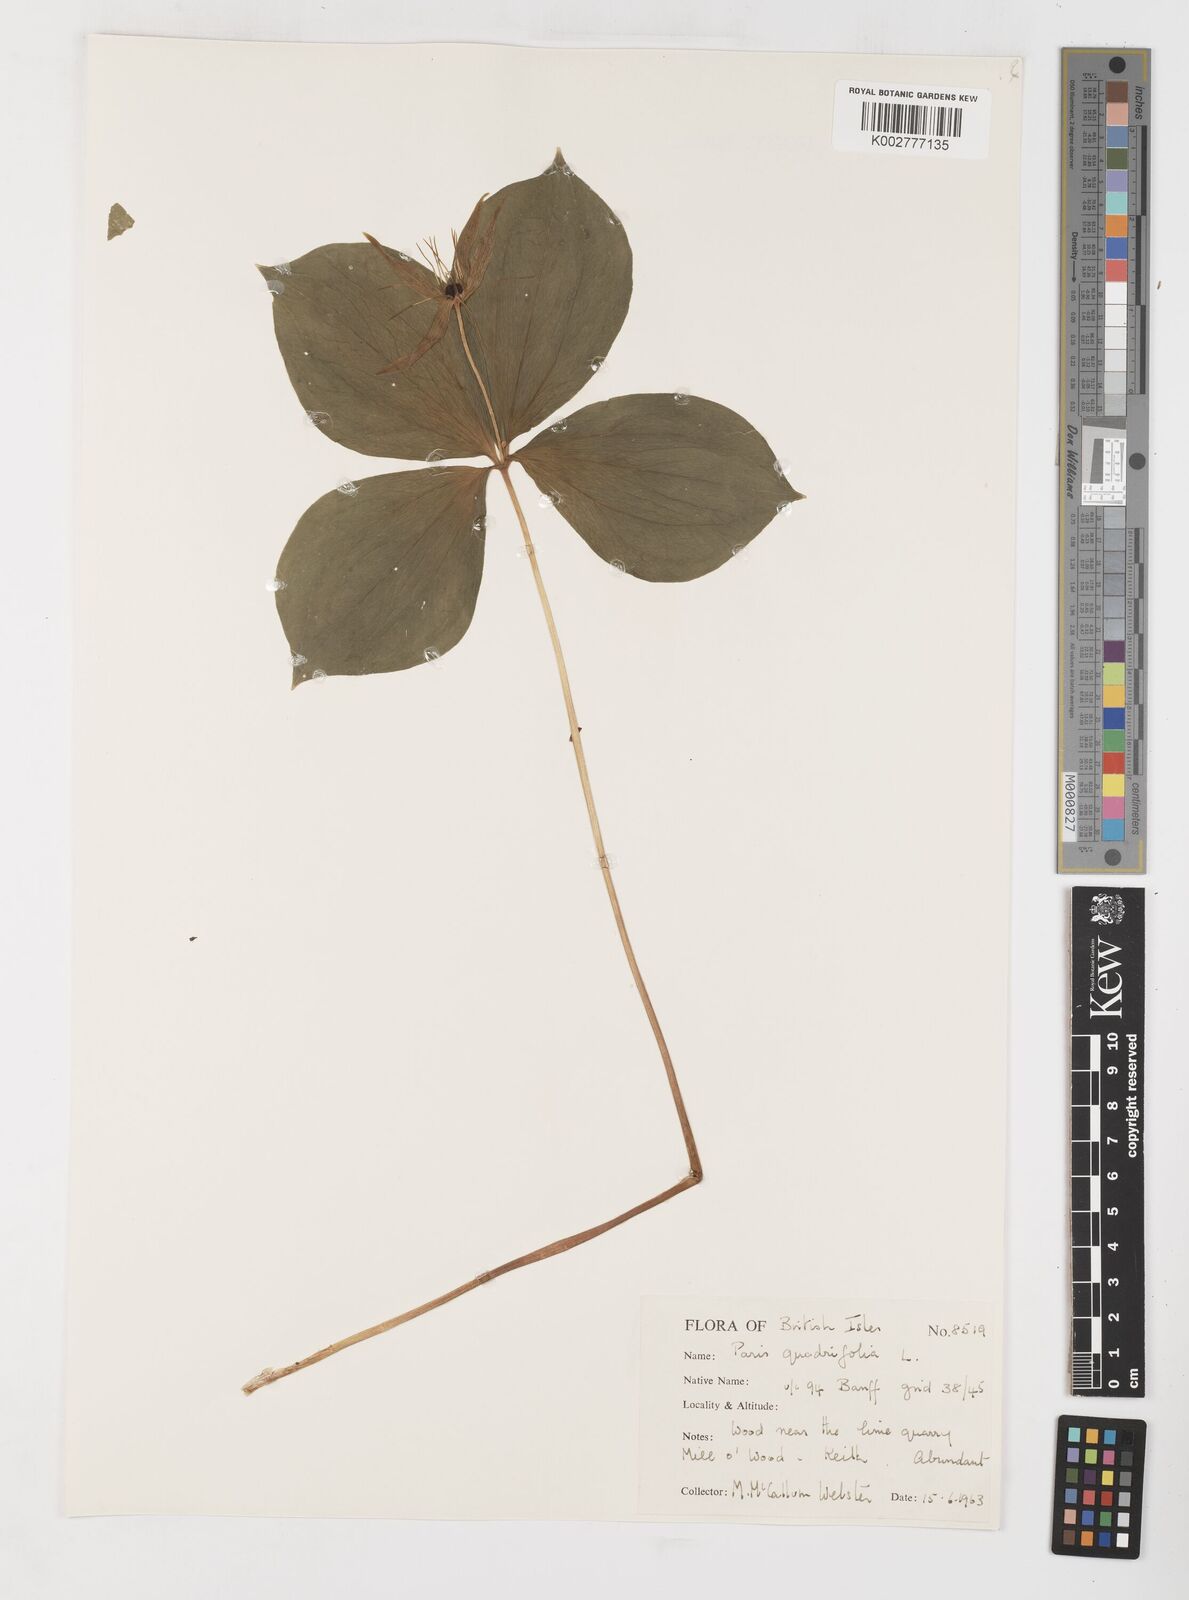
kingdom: Plantae
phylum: Tracheophyta
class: Liliopsida
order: Liliales
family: Melanthiaceae
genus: Paris
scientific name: Paris quadrifolia
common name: Herb-paris
